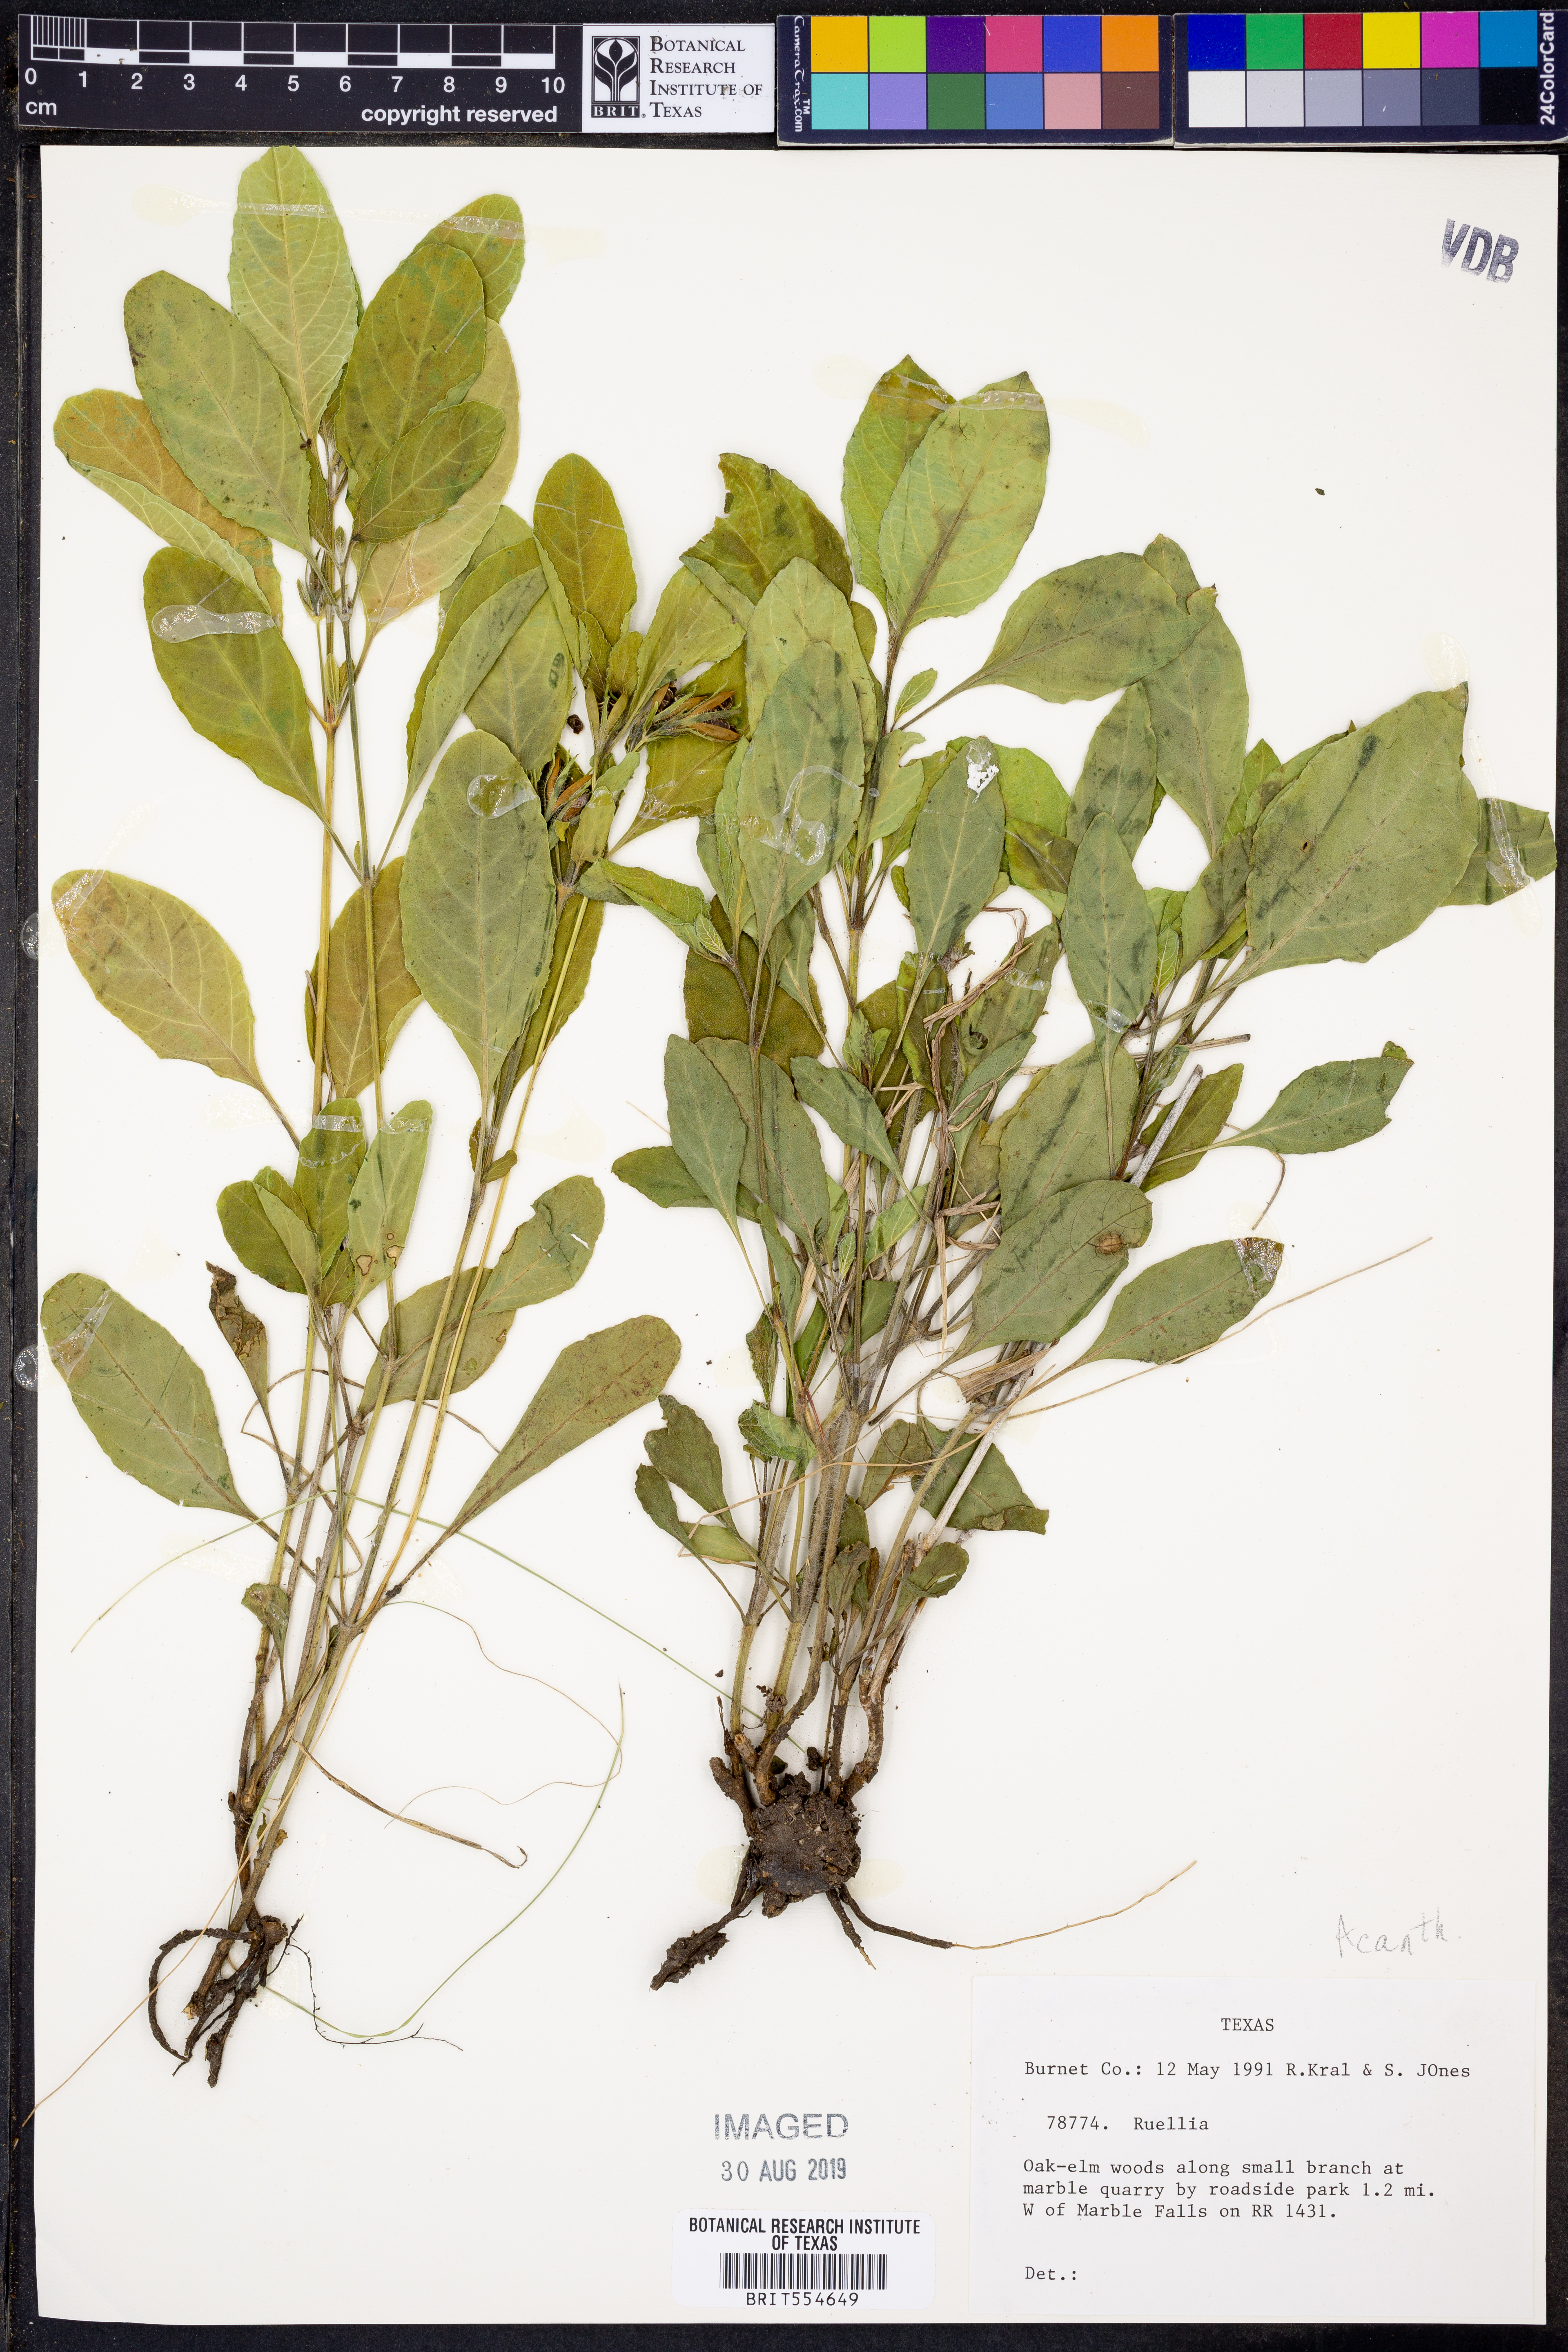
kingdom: Plantae
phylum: Tracheophyta
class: Magnoliopsida
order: Lamiales
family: Acanthaceae
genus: Ruellia
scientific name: Ruellia
